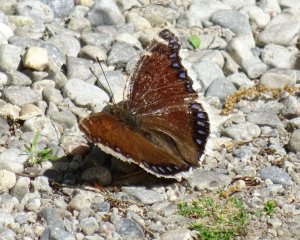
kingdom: Animalia
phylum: Arthropoda
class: Insecta
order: Lepidoptera
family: Nymphalidae
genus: Nymphalis
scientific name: Nymphalis antiopa
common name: Mourning Cloak
